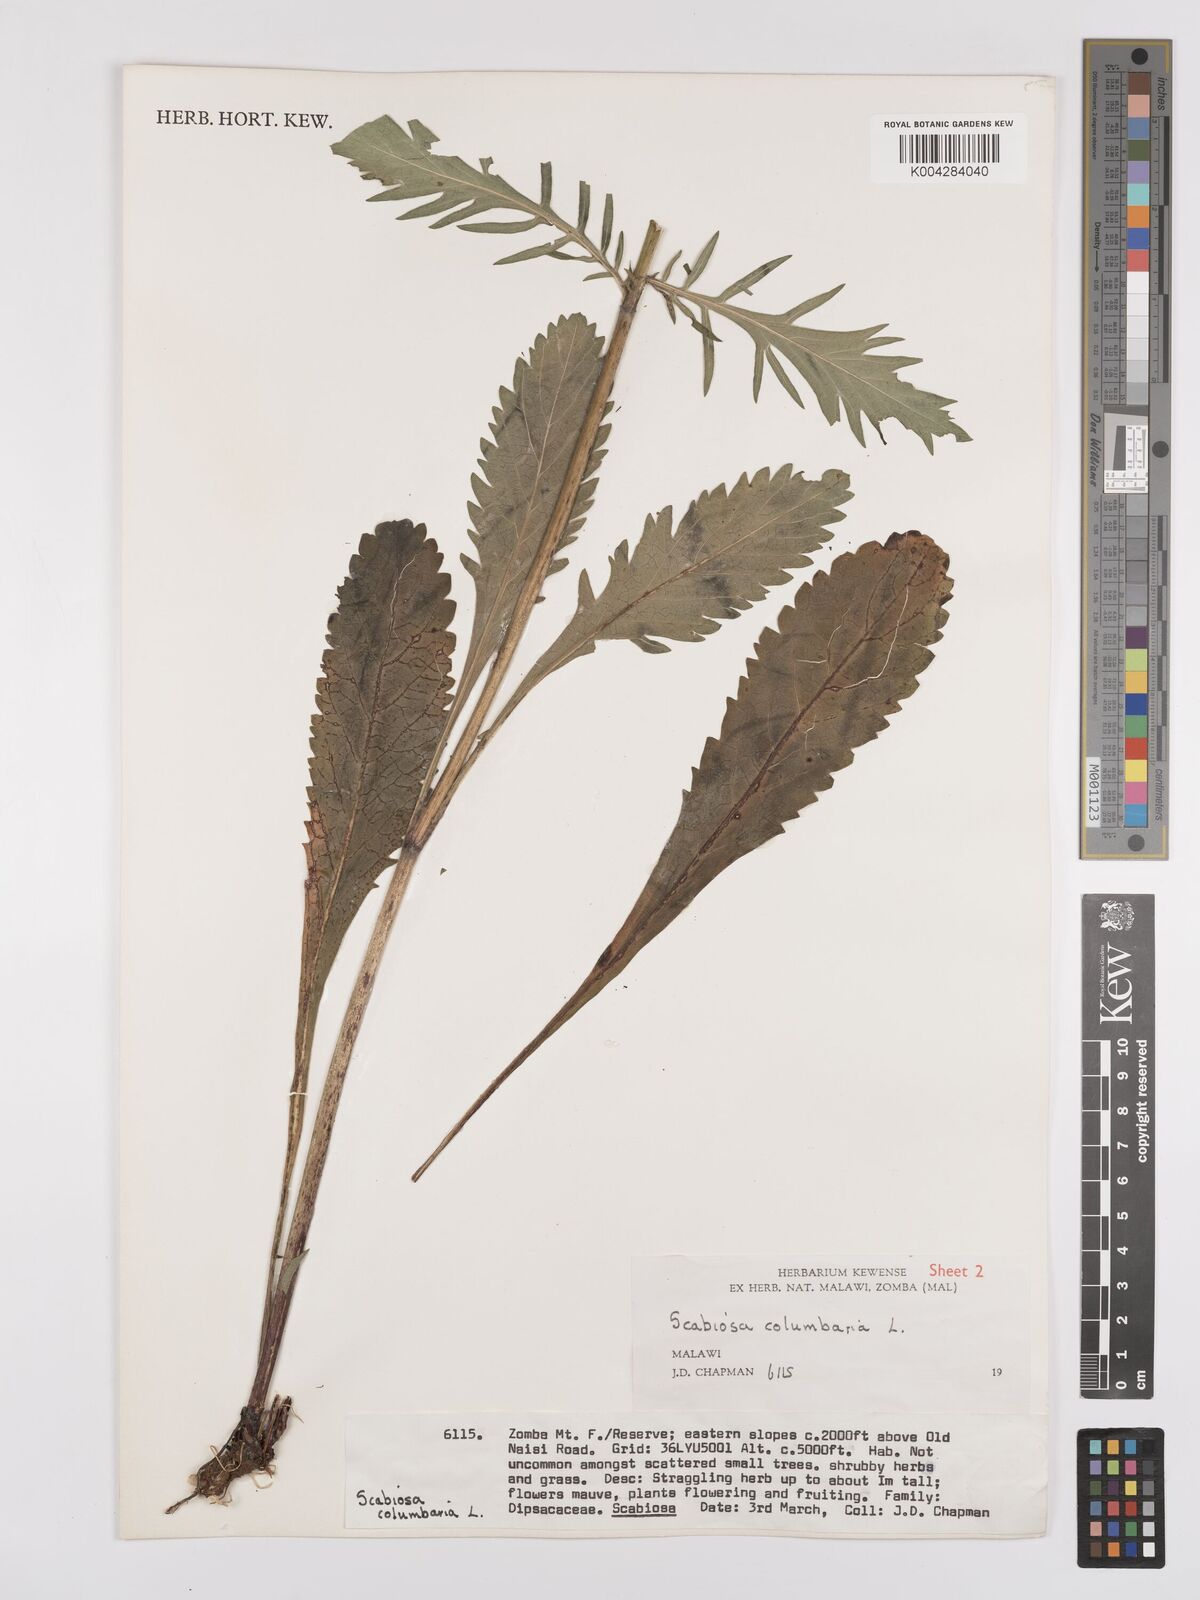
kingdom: Plantae
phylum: Tracheophyta
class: Magnoliopsida
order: Dipsacales
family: Caprifoliaceae
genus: Scabiosa
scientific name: Scabiosa austroafricana
